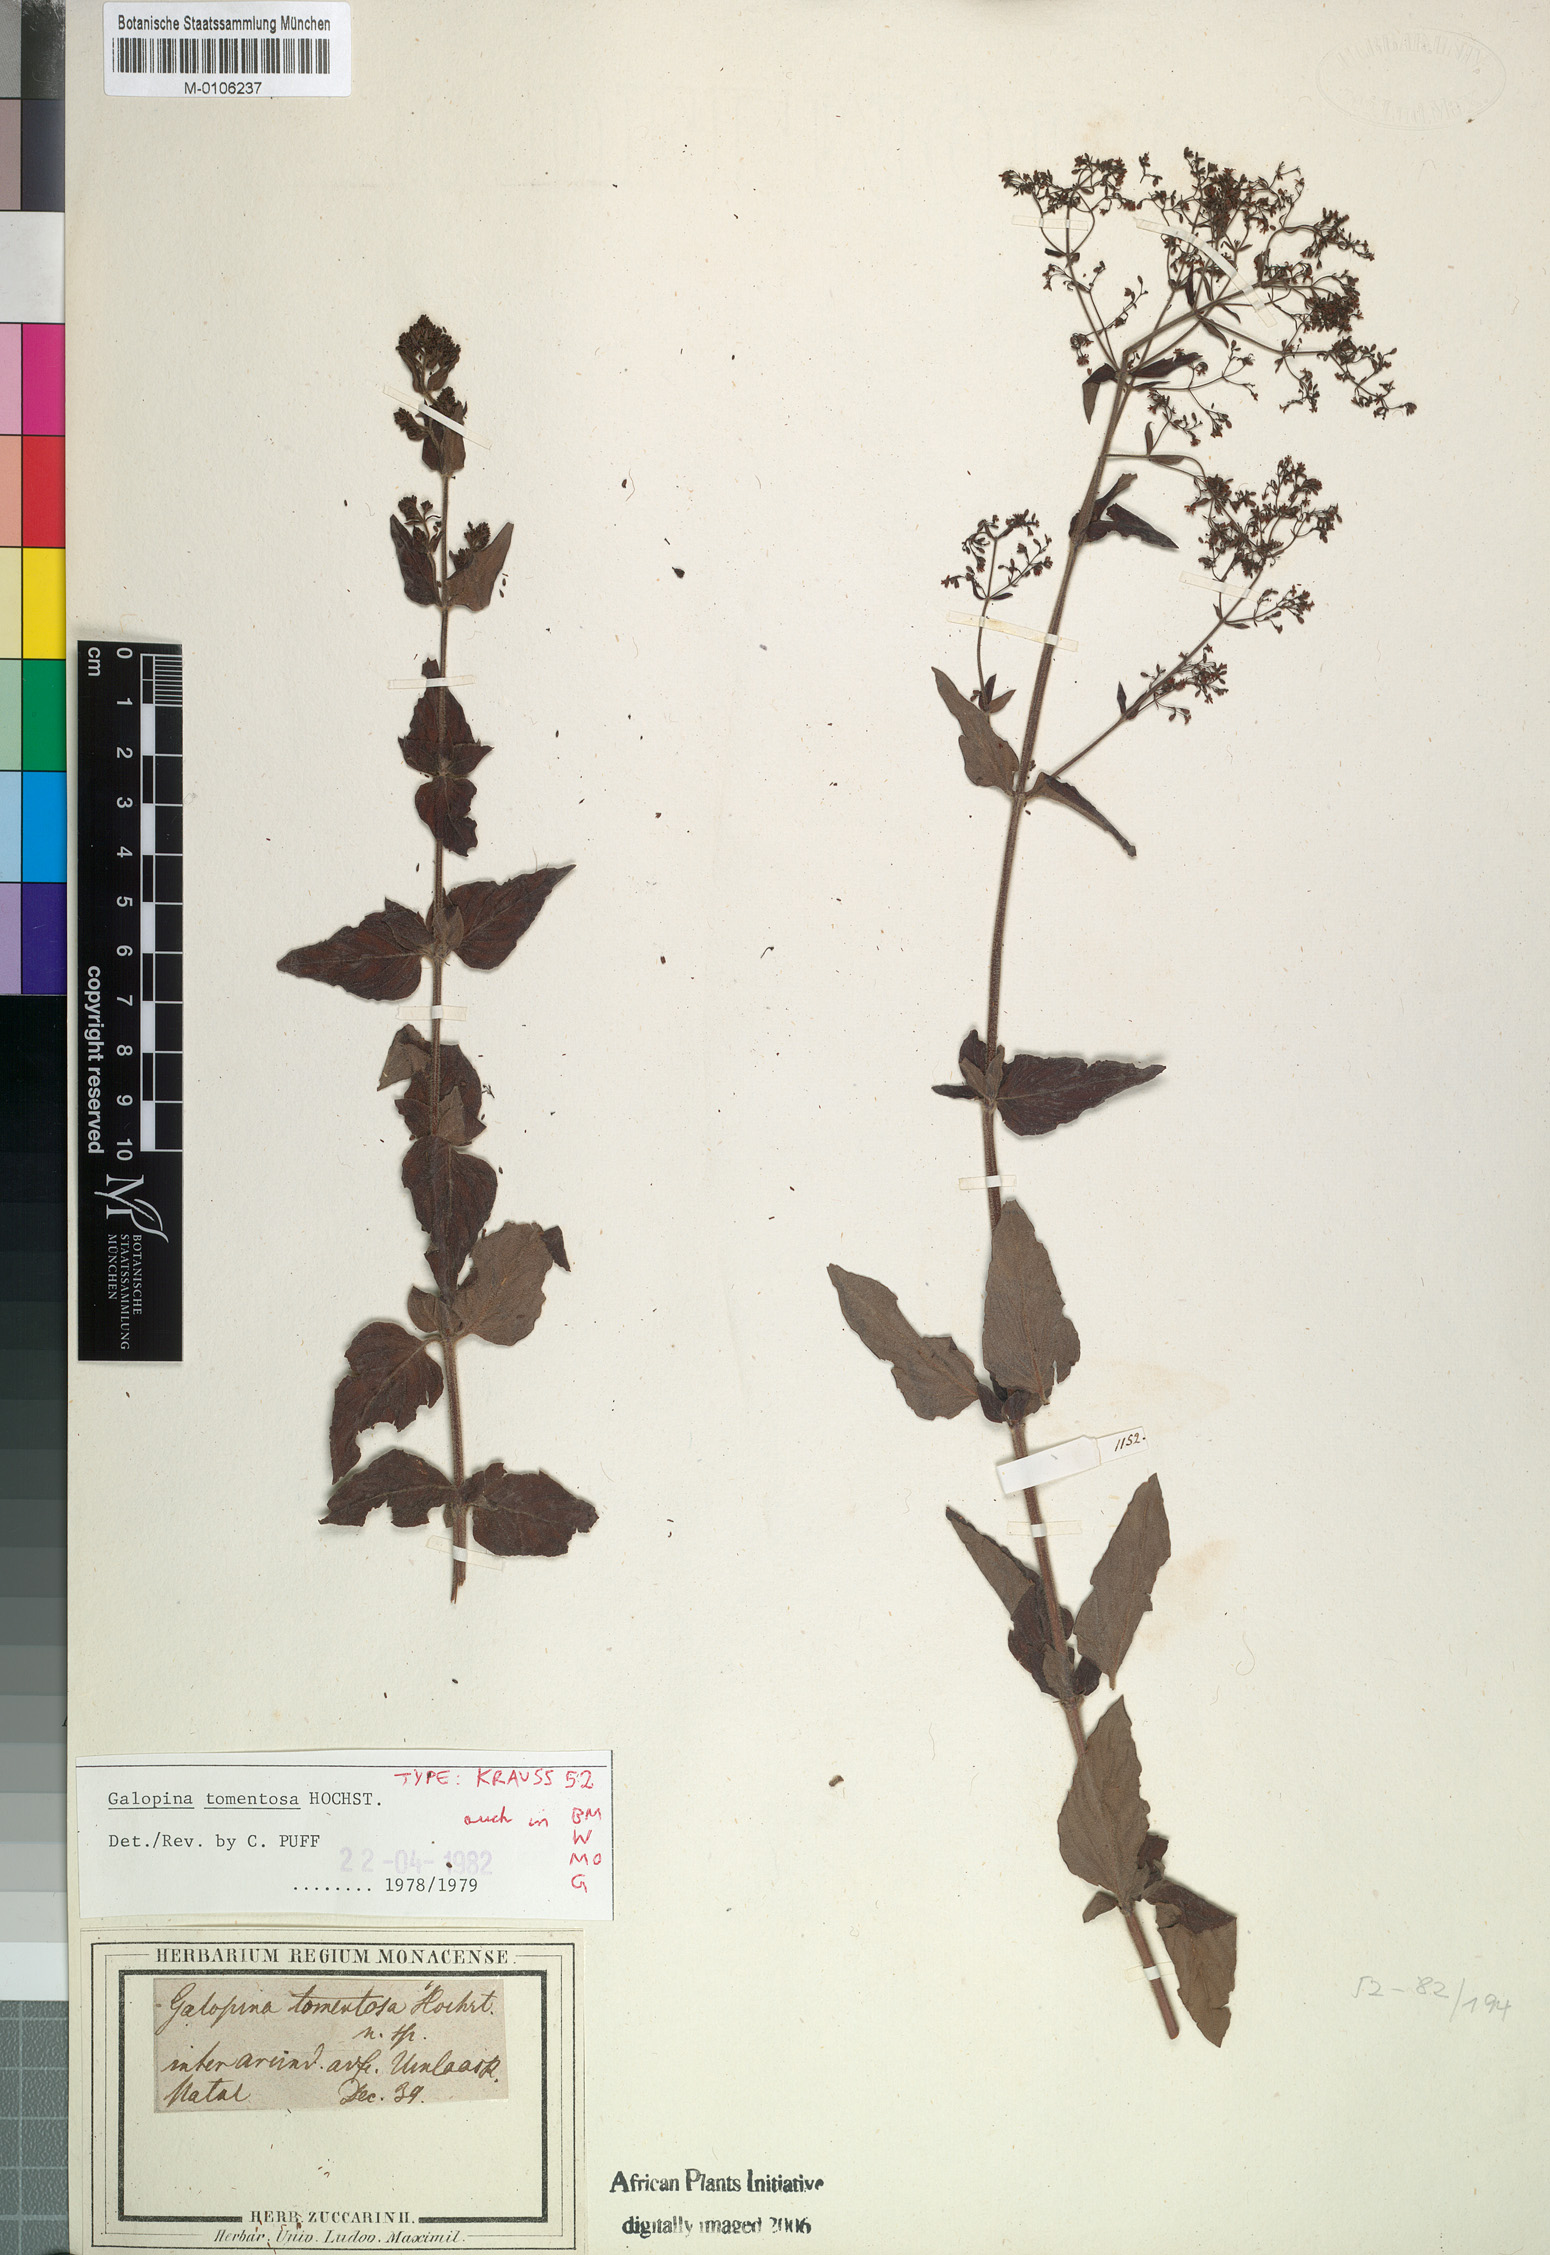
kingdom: Plantae
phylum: Tracheophyta
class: Magnoliopsida
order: Gentianales
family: Rubiaceae
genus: Galopina
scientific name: Galopina tomentosa
